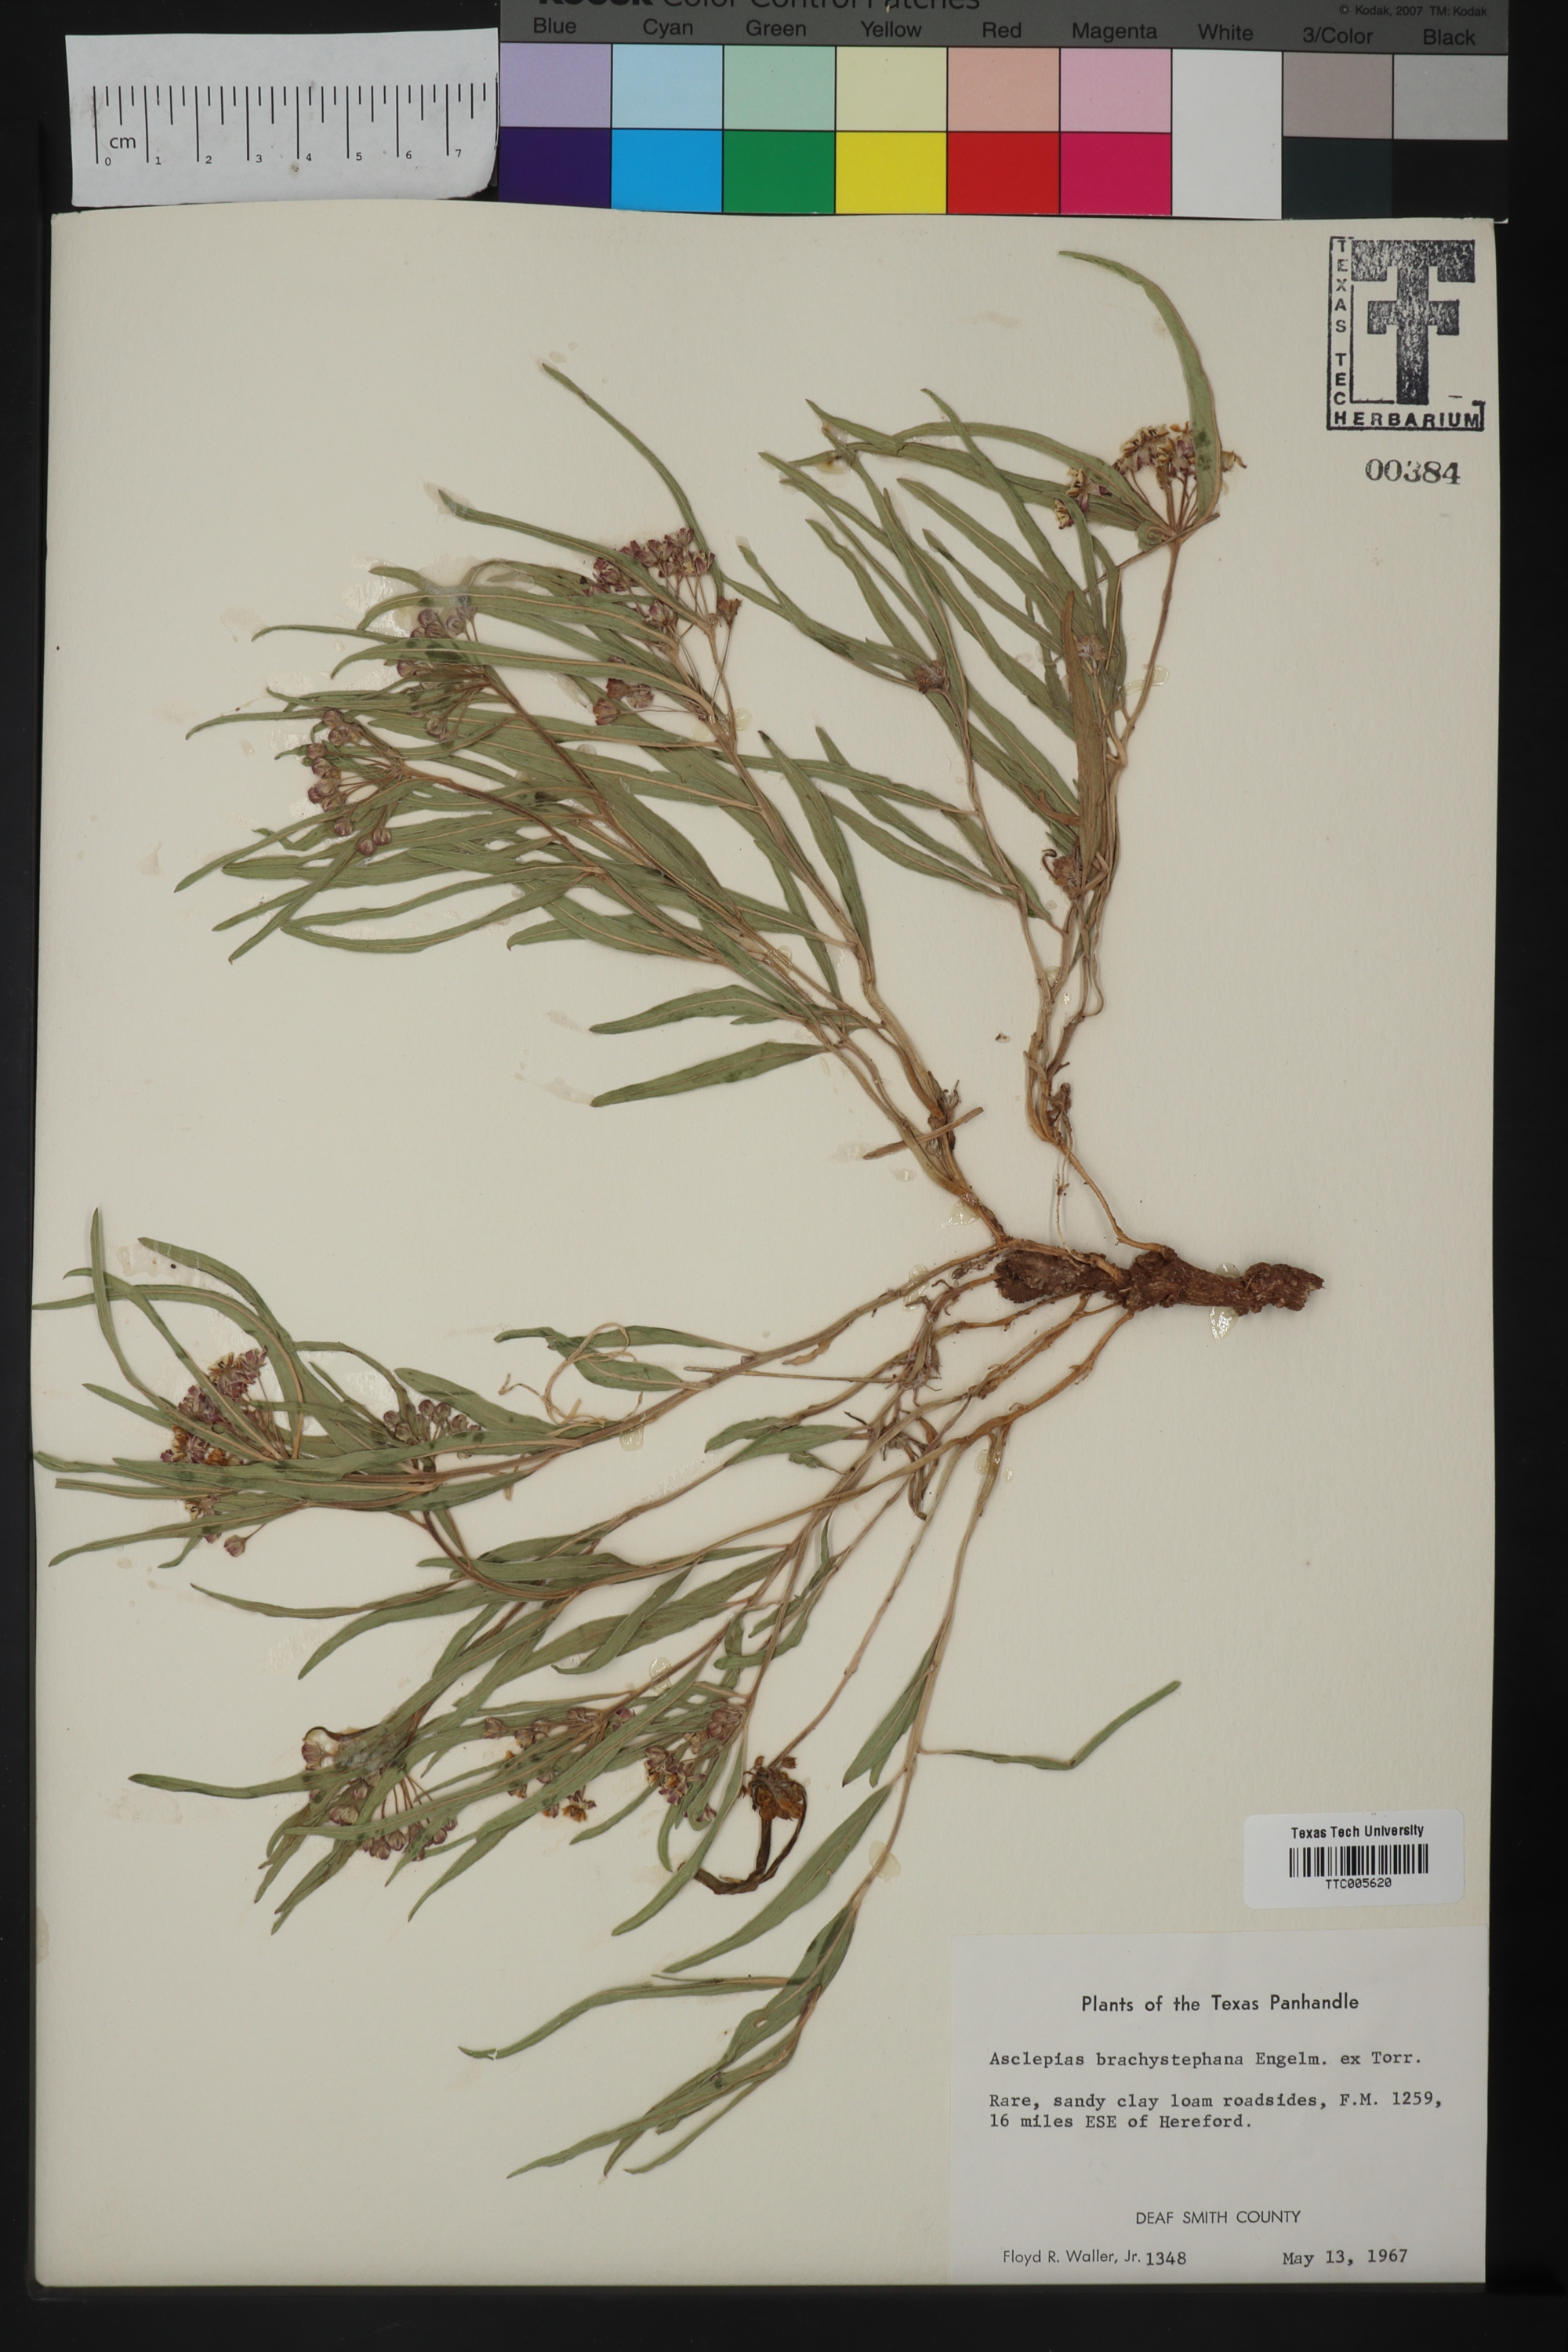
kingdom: Plantae
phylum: Tracheophyta
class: Magnoliopsida
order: Gentianales
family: Apocynaceae
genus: Asclepias
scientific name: Asclepias brachystephana
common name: Shortcrown milkweed
